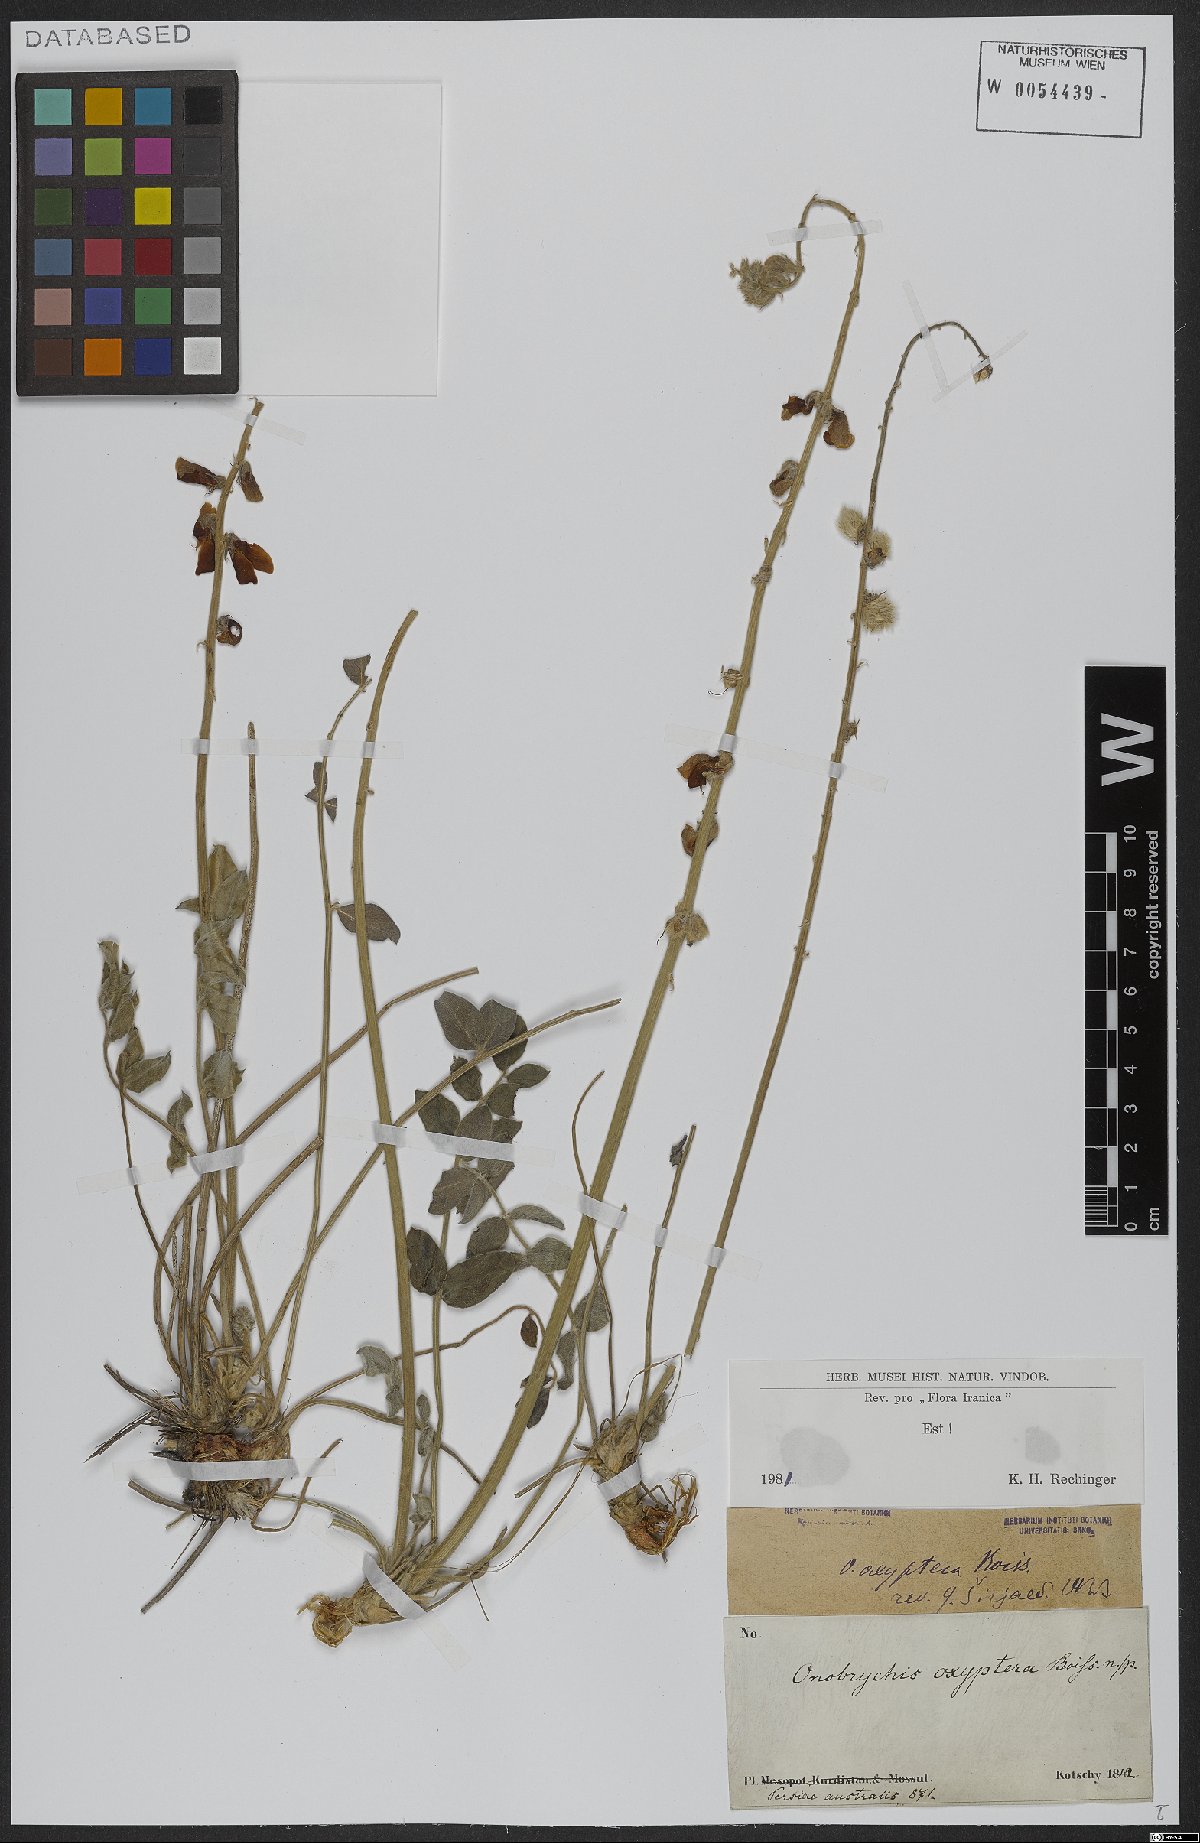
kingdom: Plantae
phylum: Tracheophyta
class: Magnoliopsida
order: Fabales
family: Fabaceae
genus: Onobrychis
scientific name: Onobrychis oxyptera
